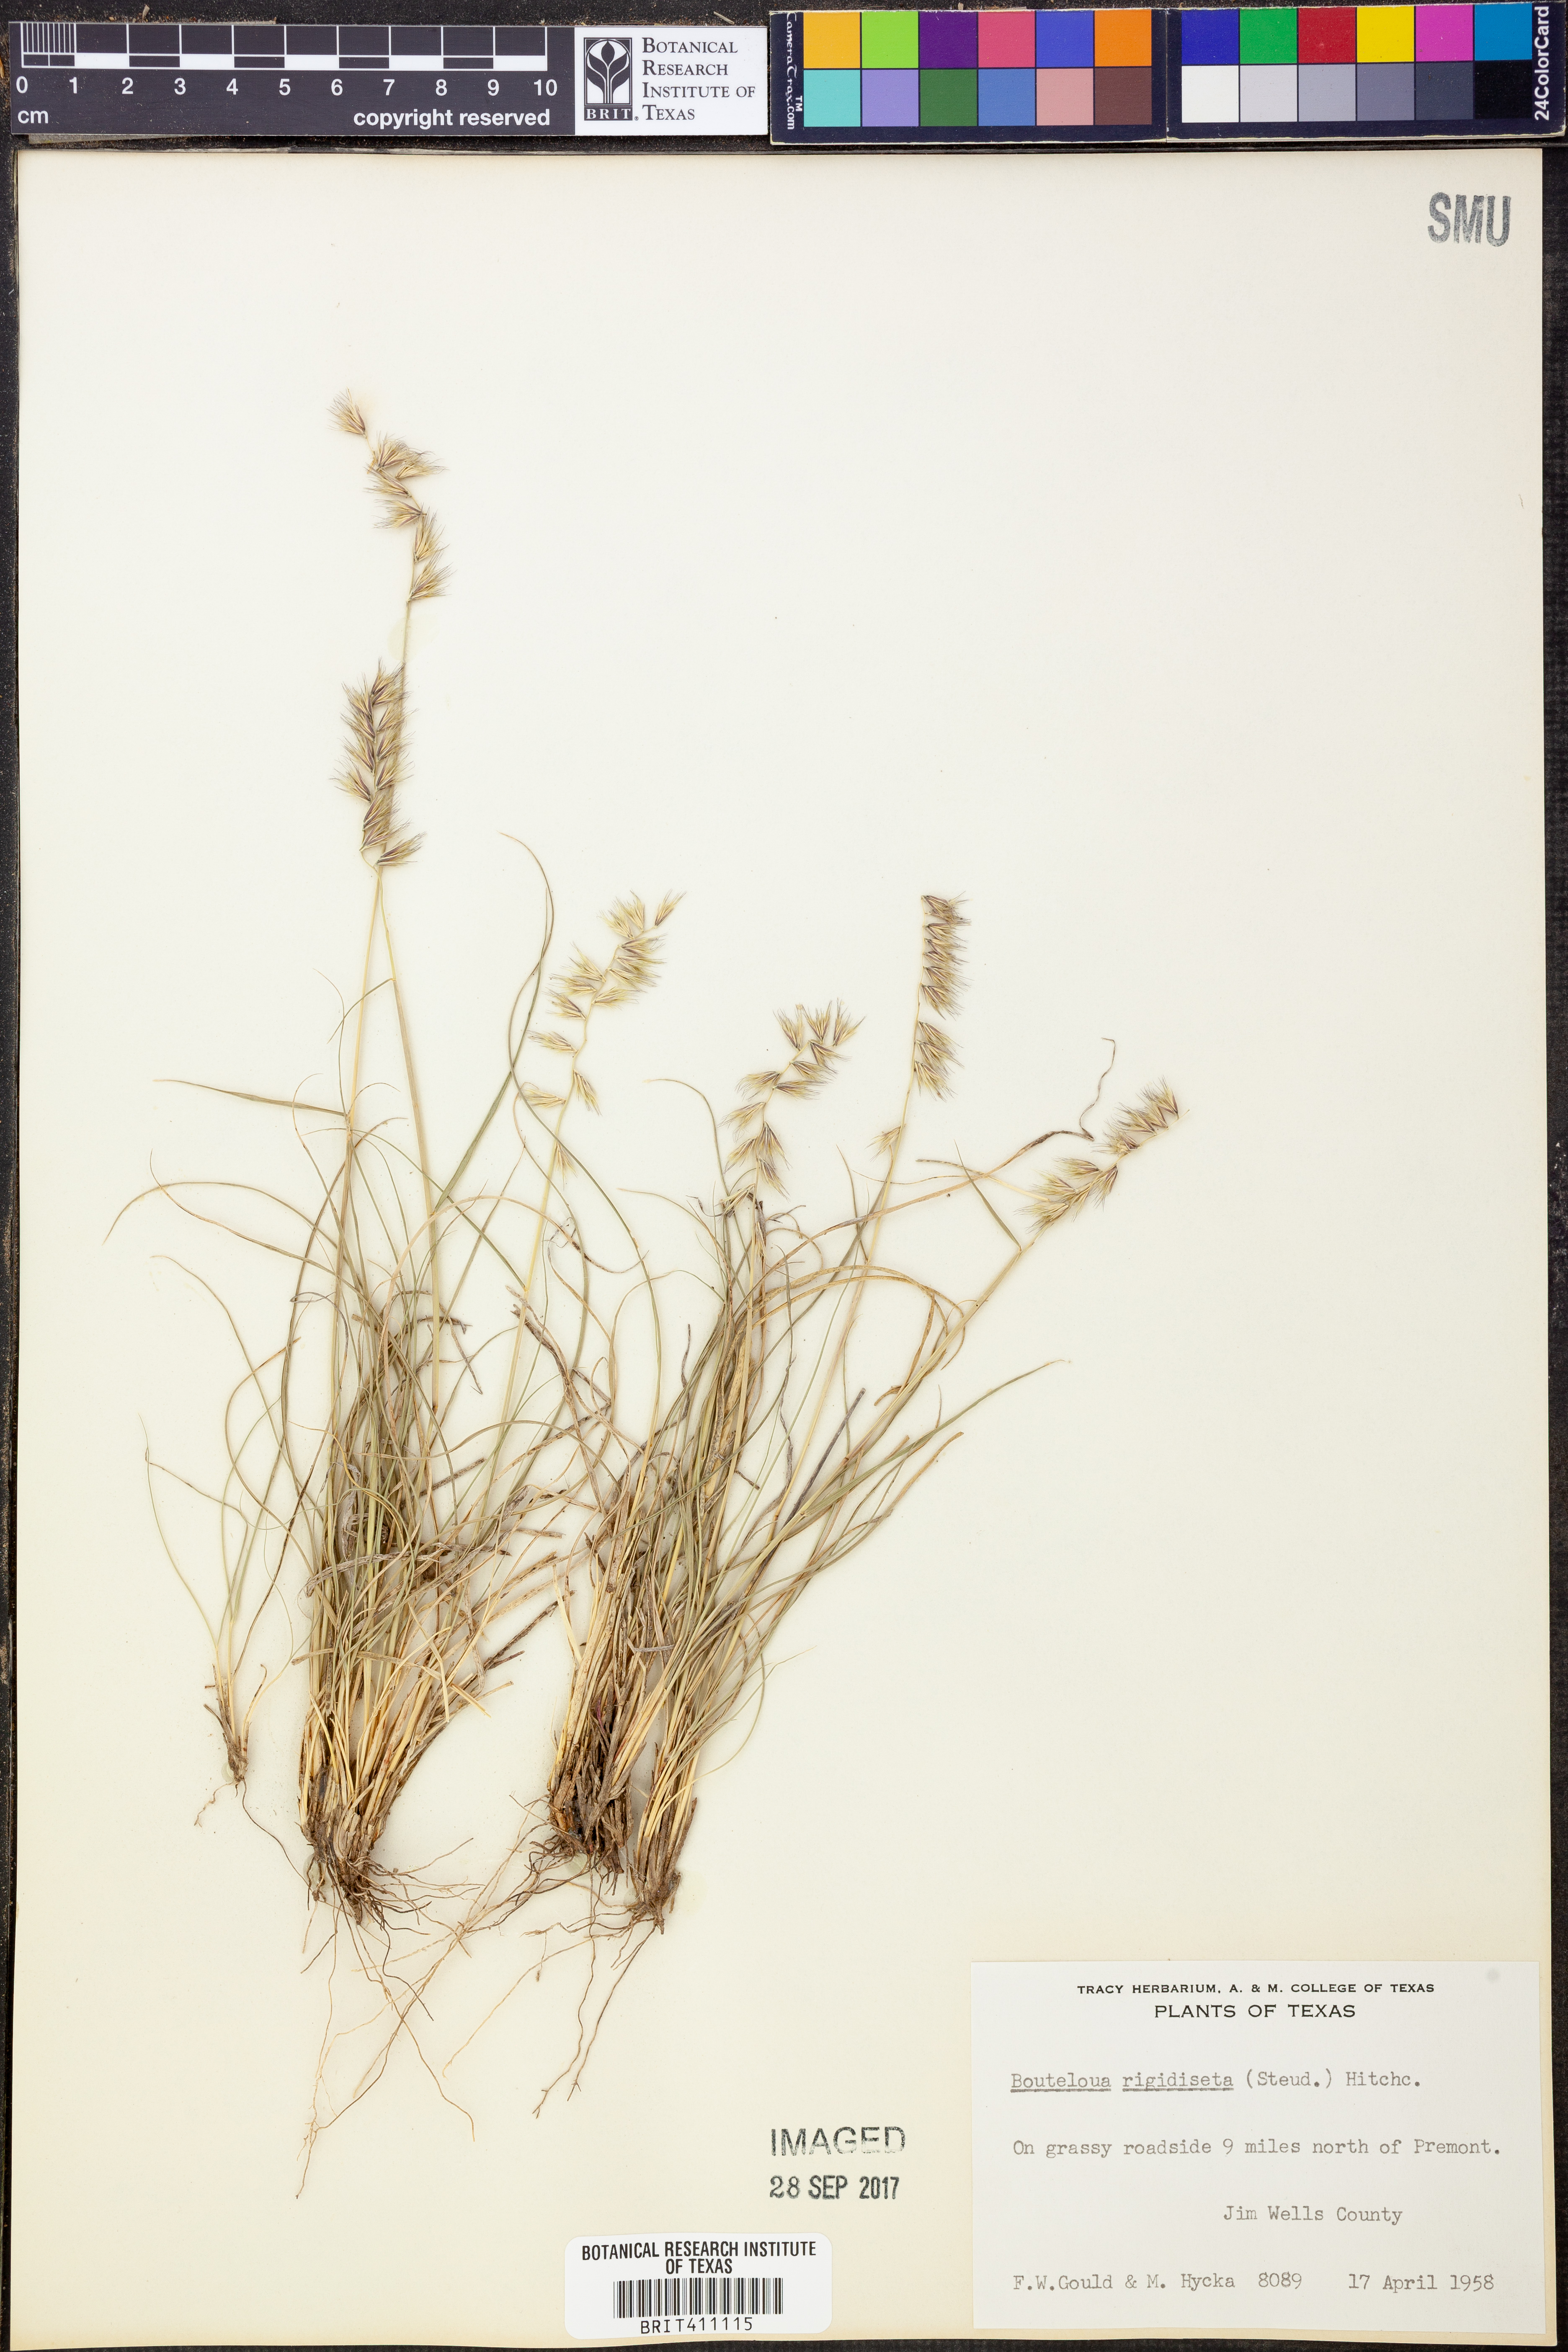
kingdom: Plantae
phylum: Tracheophyta
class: Liliopsida
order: Poales
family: Poaceae
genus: Bouteloua
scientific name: Bouteloua rigidiseta
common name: Texas grama
